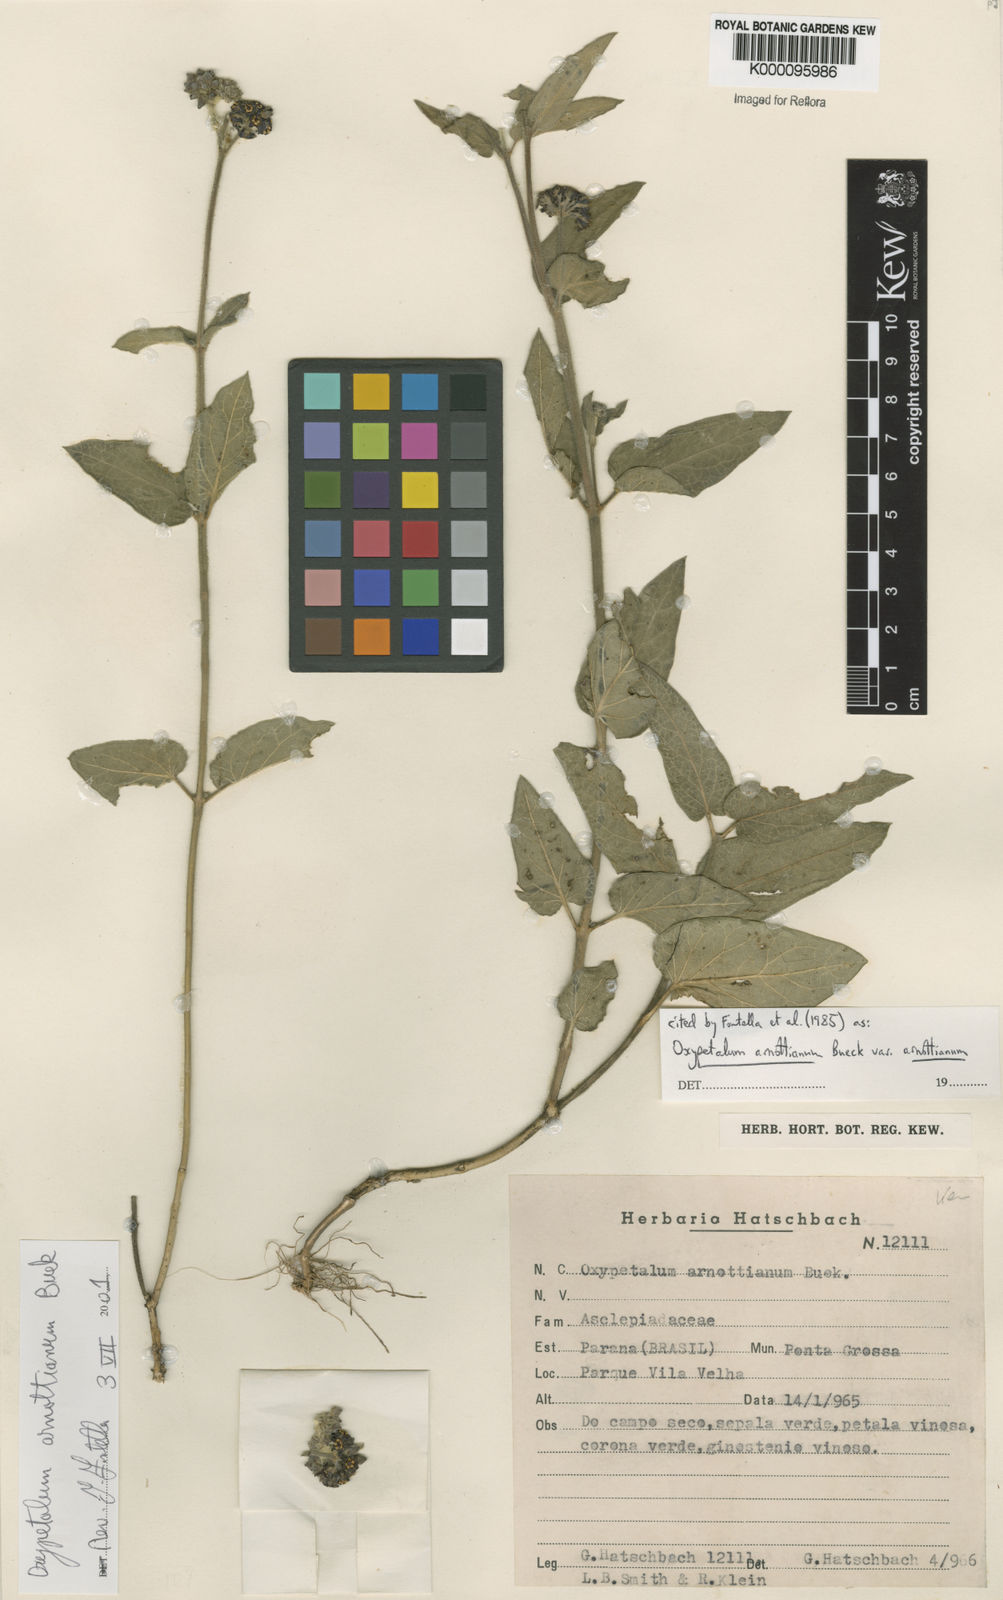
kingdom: Plantae
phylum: Tracheophyta
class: Magnoliopsida
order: Gentianales
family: Apocynaceae
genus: Oxypetalum
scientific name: Oxypetalum arnottianum
